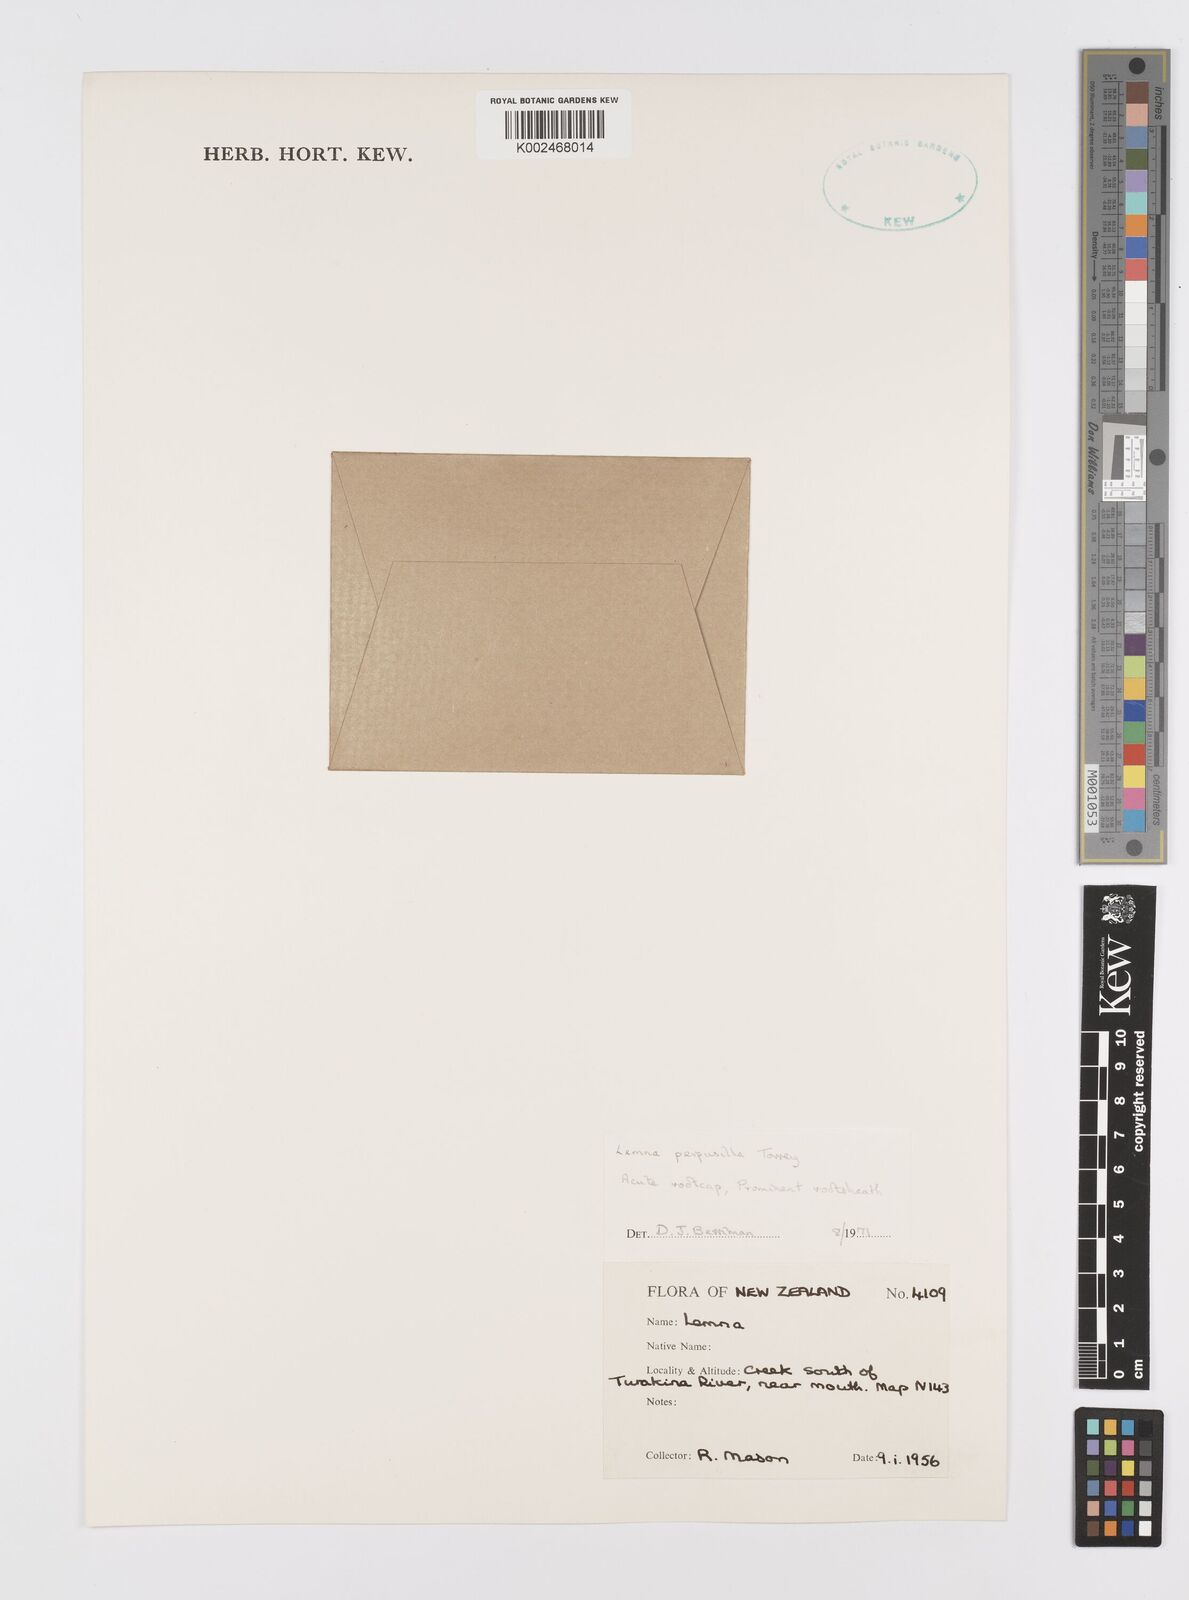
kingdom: Plantae
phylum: Tracheophyta
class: Liliopsida
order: Alismatales
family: Araceae
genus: Lemna
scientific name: Lemna perpusilla
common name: Duckweed
